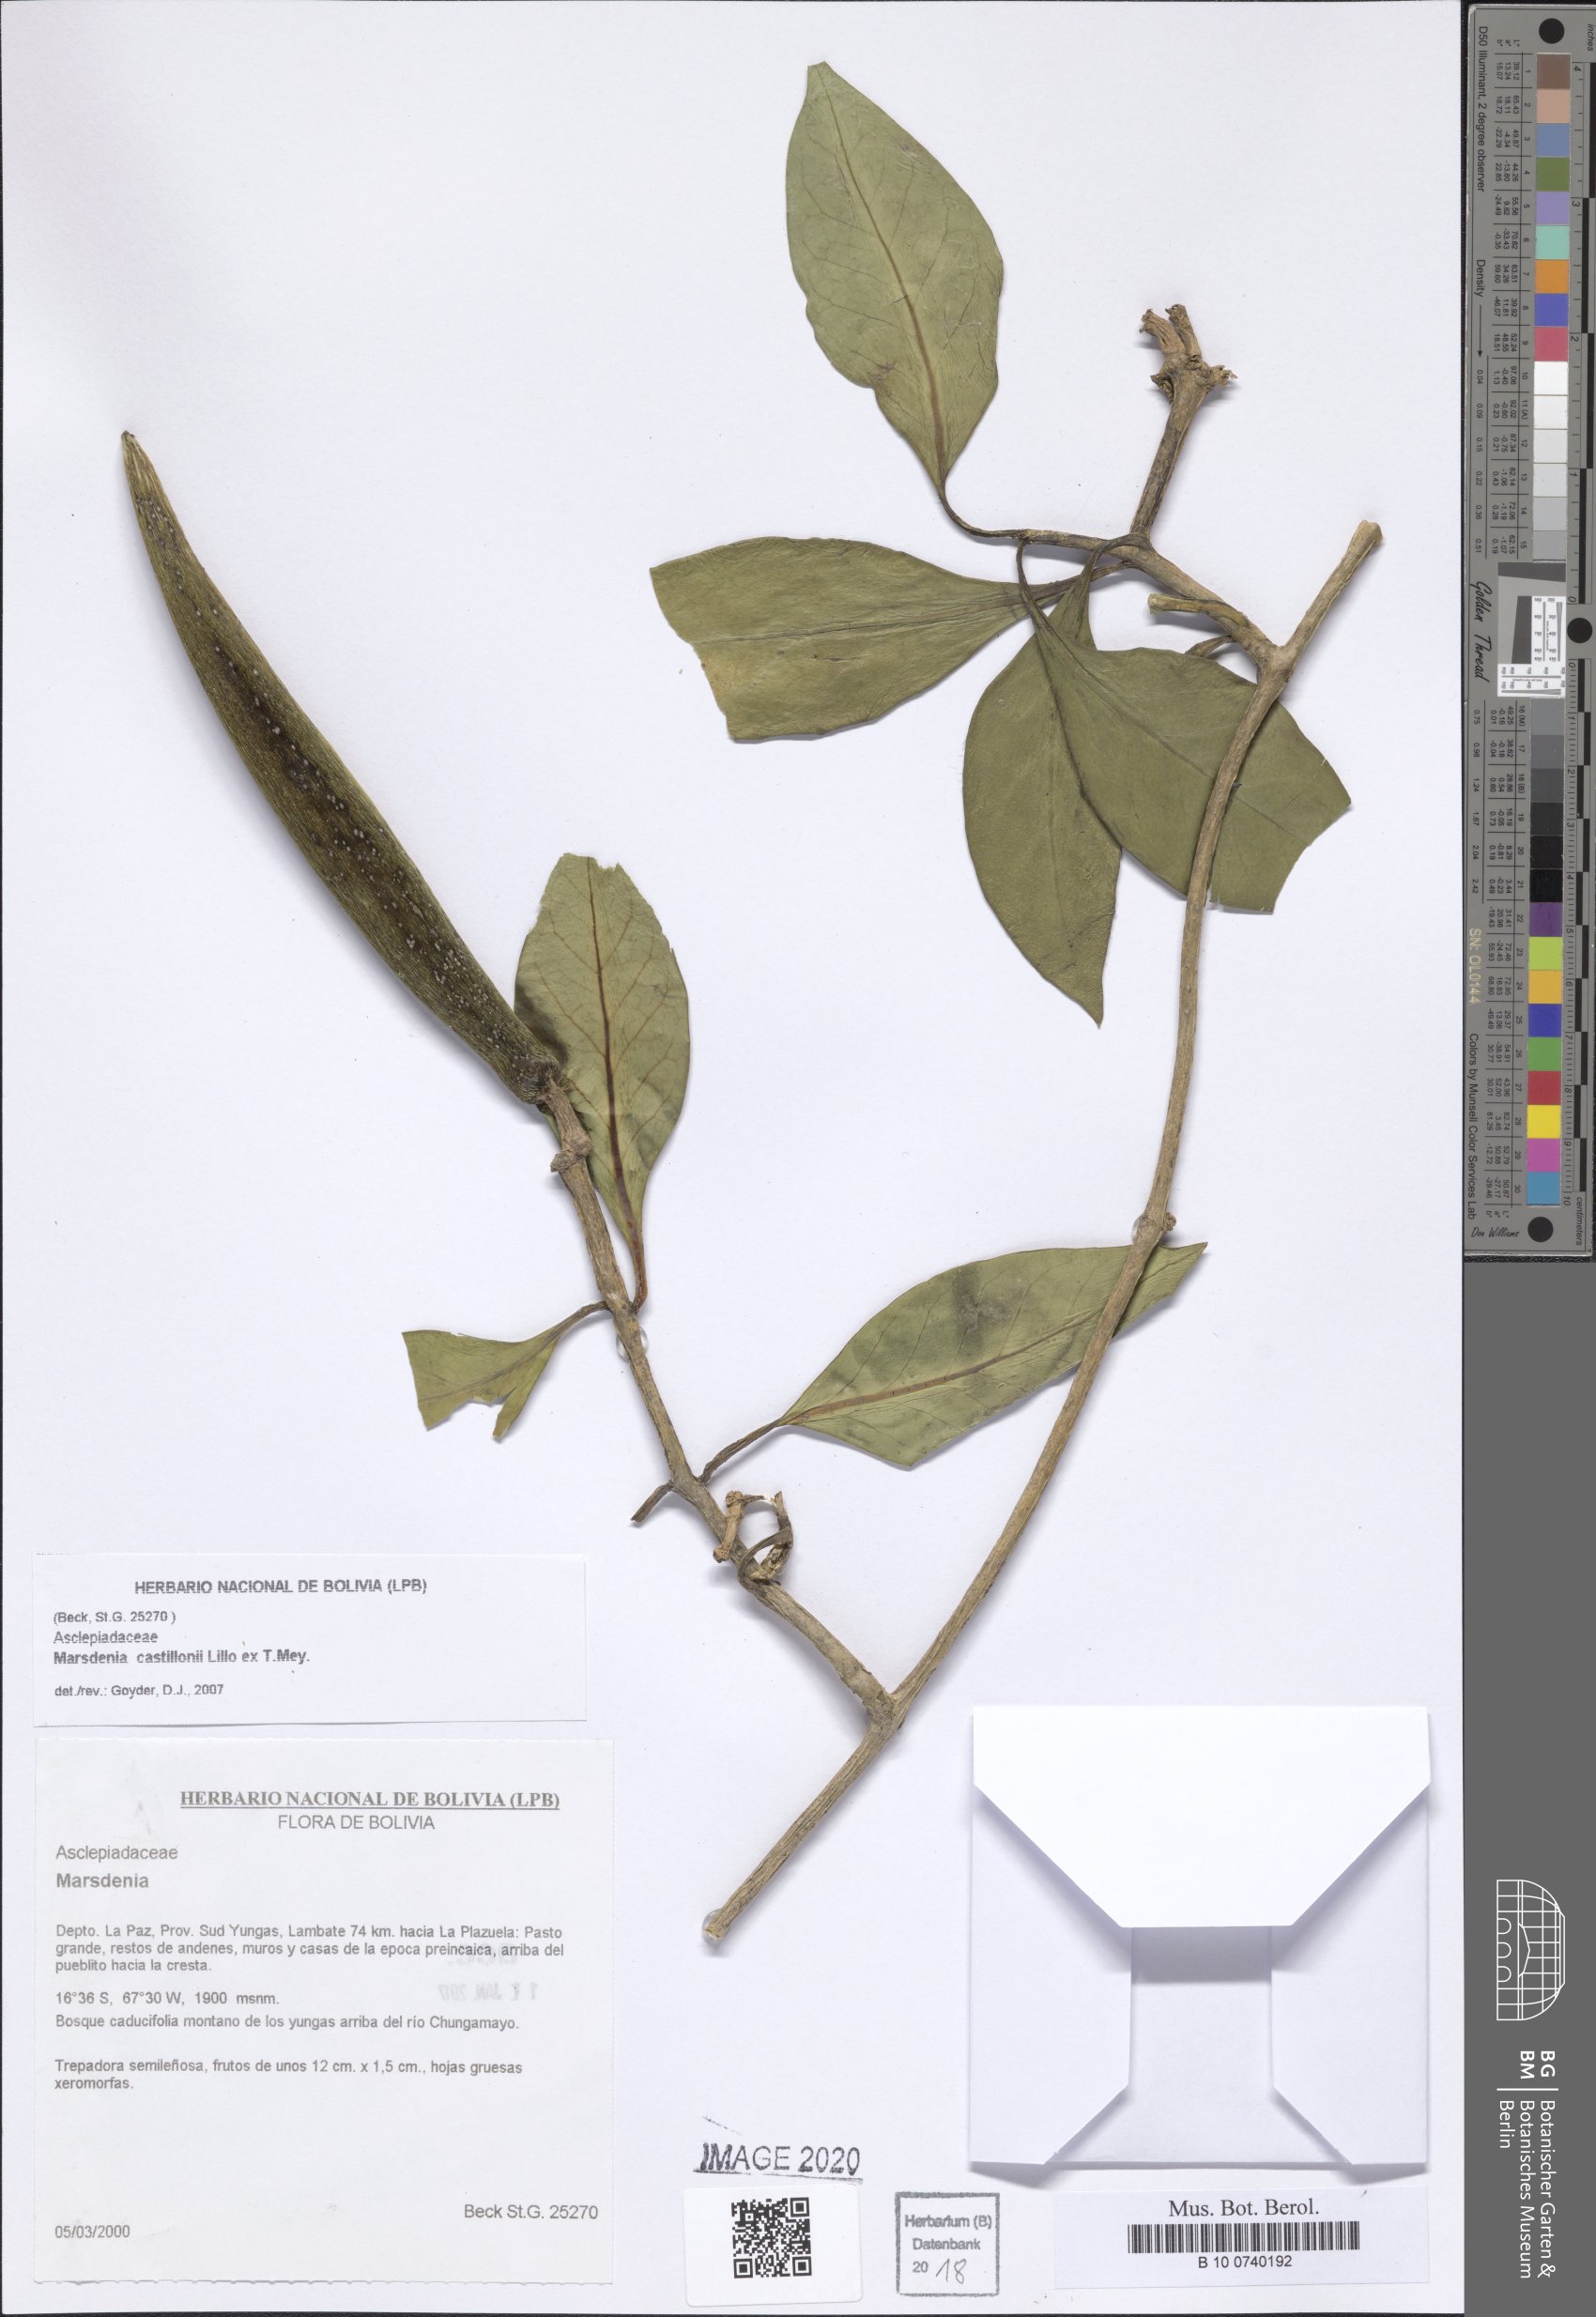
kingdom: Plantae
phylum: Tracheophyta
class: Magnoliopsida
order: Gentianales
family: Apocynaceae
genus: Ruehssia
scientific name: Ruehssia castillonii
